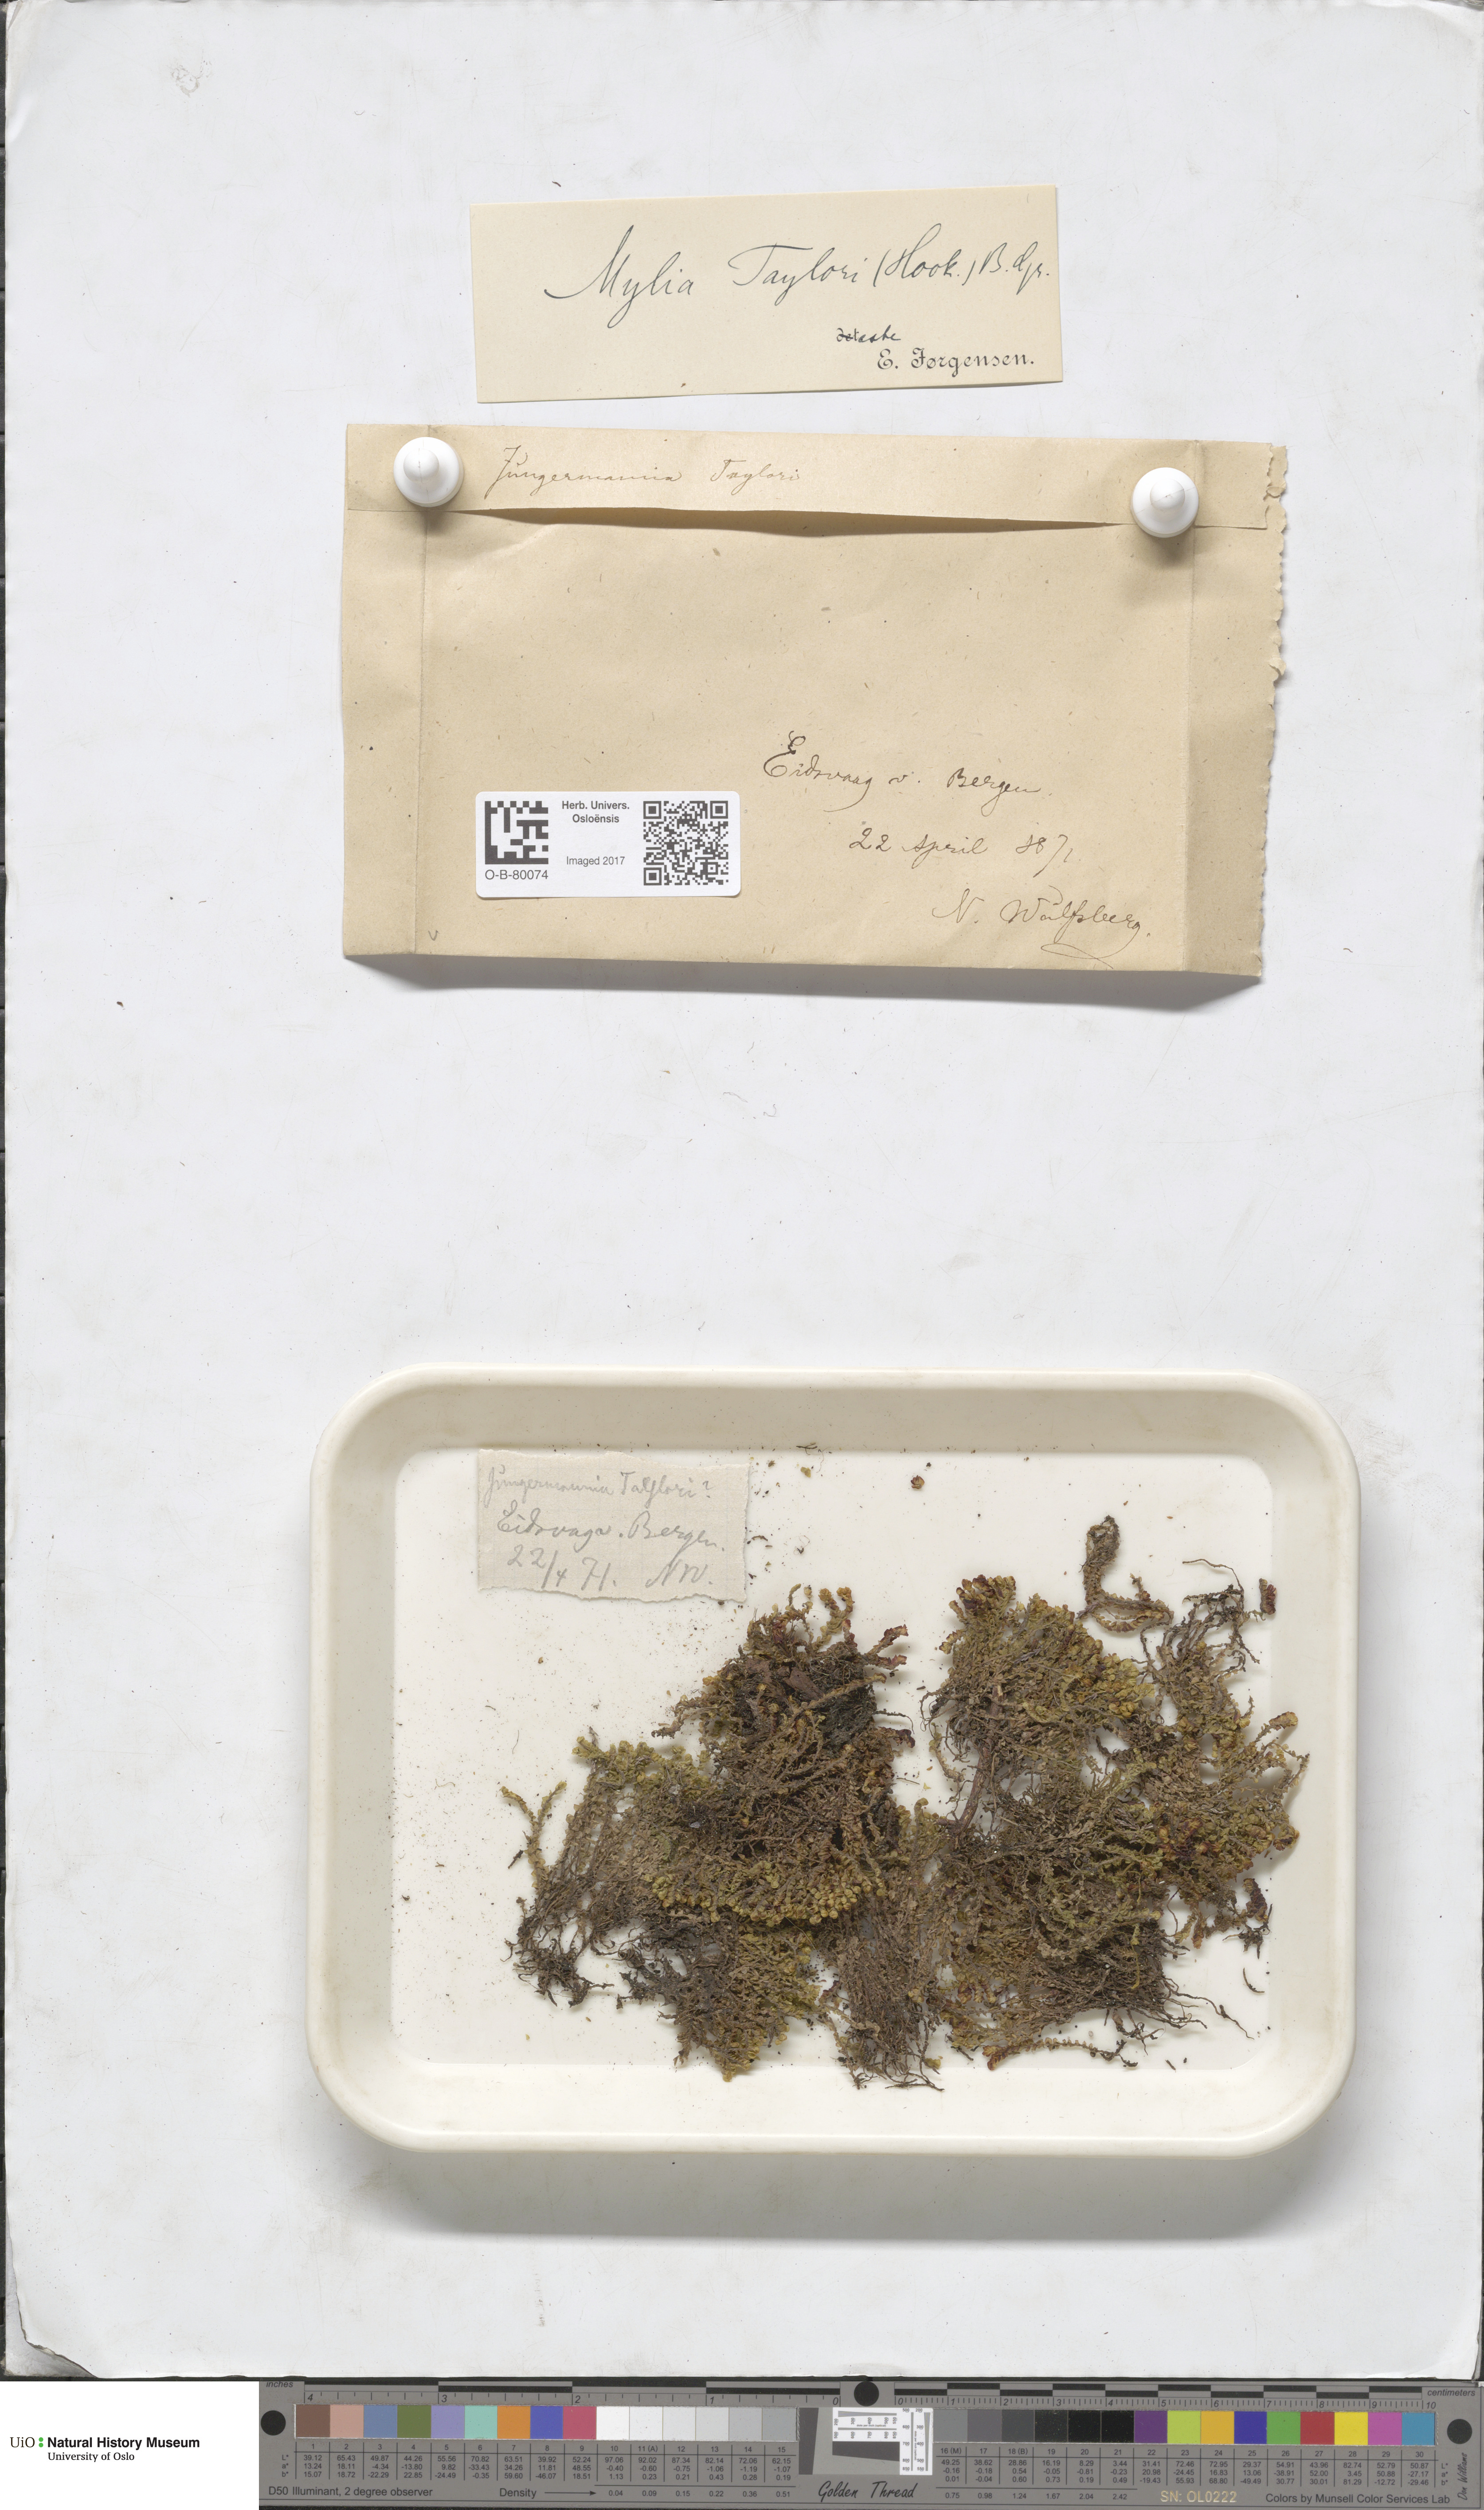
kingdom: Plantae
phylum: Marchantiophyta
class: Jungermanniopsida
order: Jungermanniales
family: Myliaceae
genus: Mylia
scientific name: Mylia taylorii
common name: Taylor s flapwort
